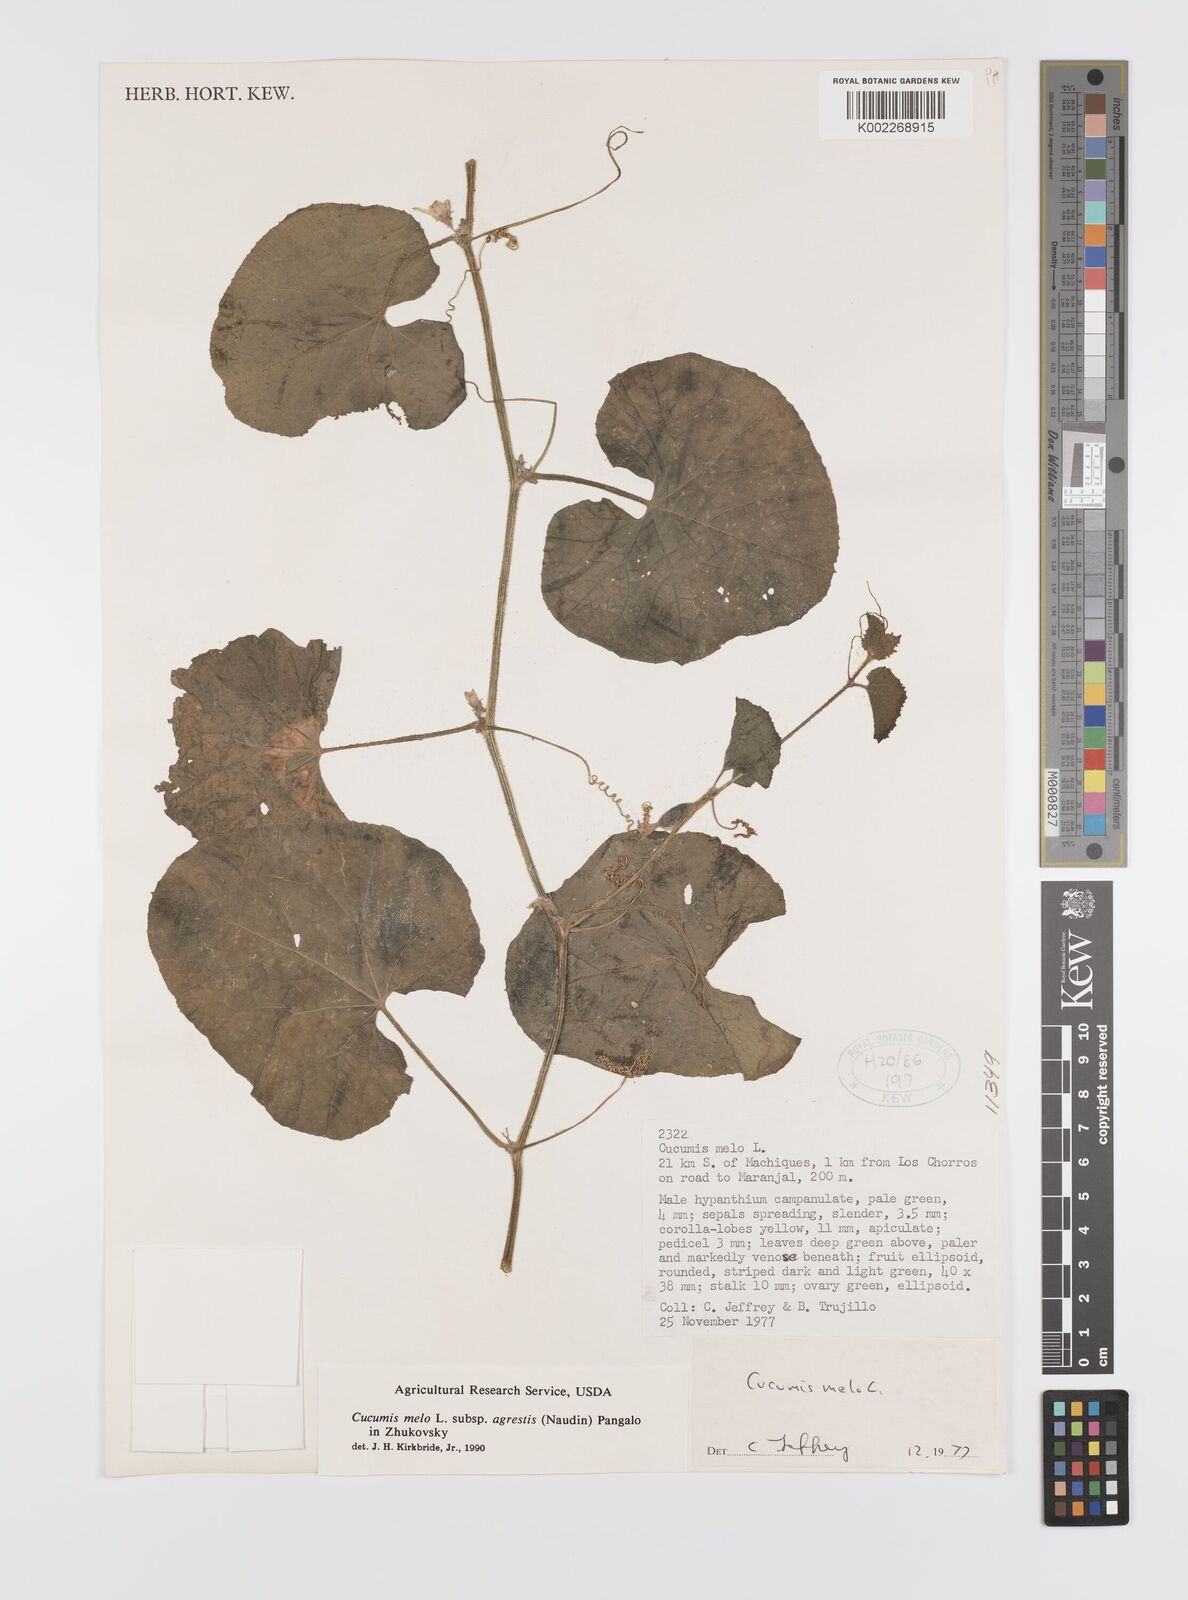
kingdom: Plantae
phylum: Tracheophyta
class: Magnoliopsida
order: Cucurbitales
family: Cucurbitaceae
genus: Cucumis
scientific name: Cucumis melo
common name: Melon
